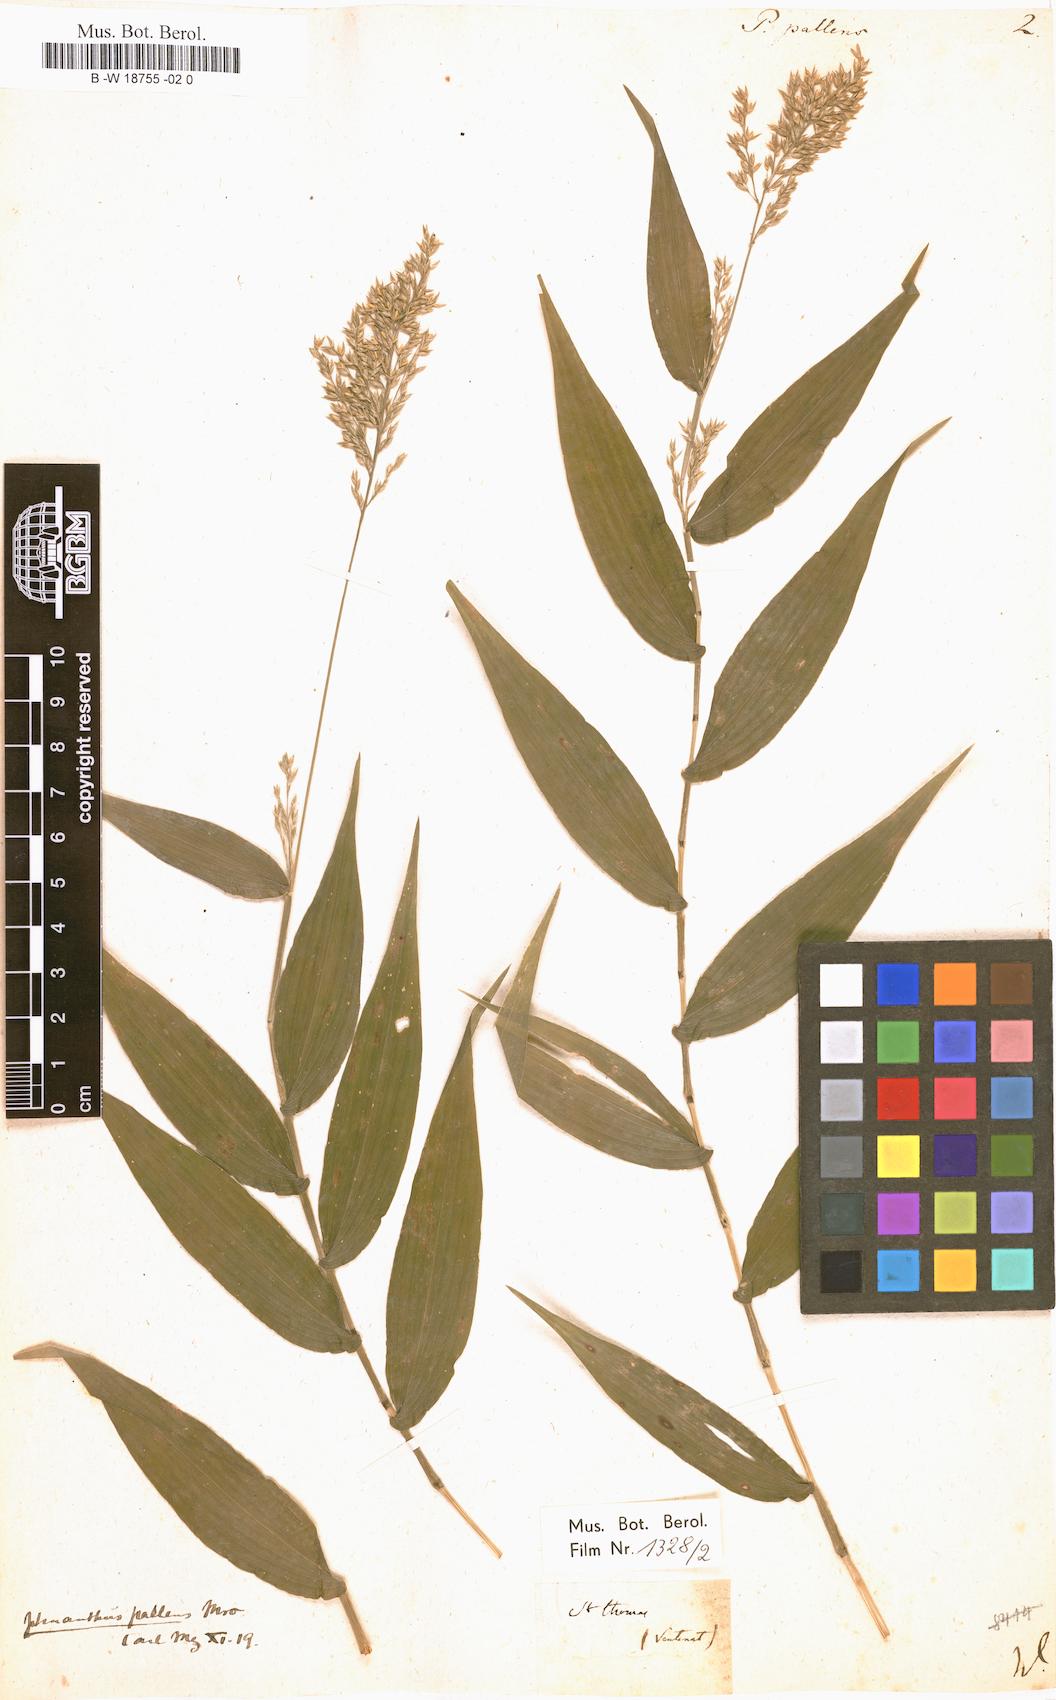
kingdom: Plantae
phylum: Tracheophyta
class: Liliopsida
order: Poales
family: Poaceae
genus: Ichnanthus
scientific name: Ichnanthus pallens
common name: Water grass
